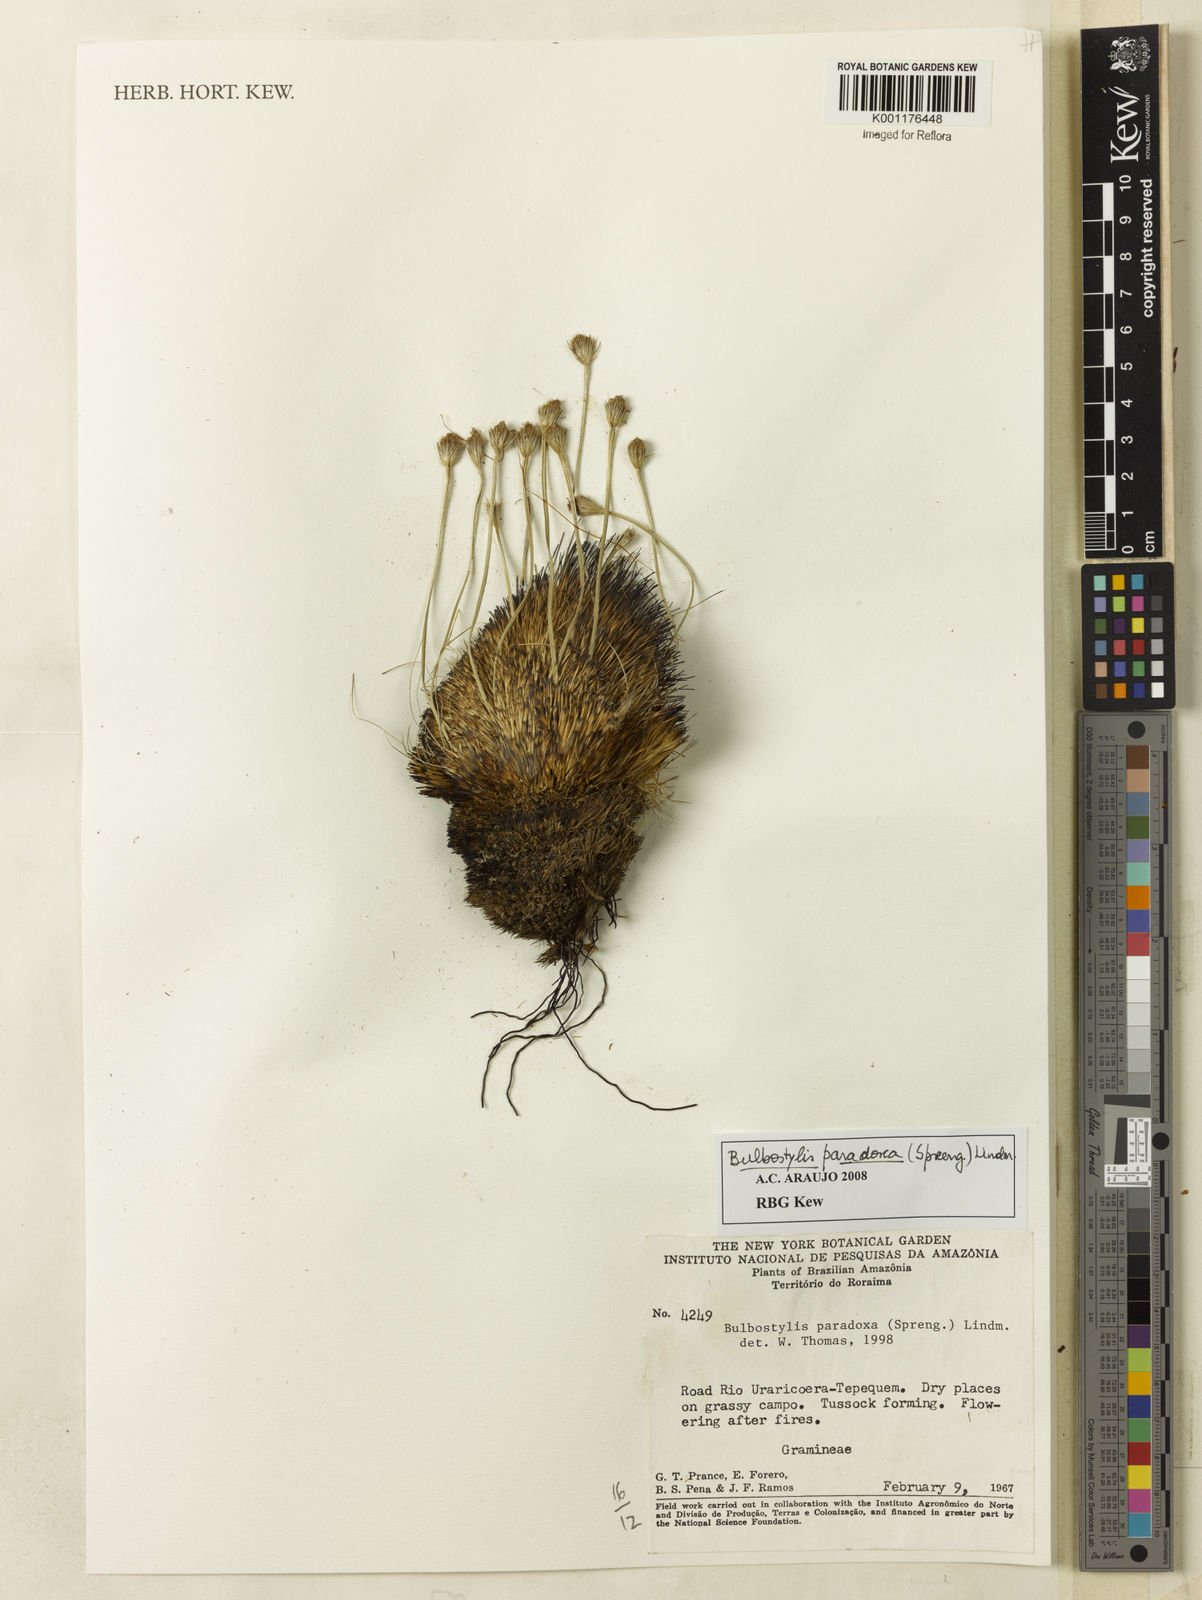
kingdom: Plantae
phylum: Tracheophyta
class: Liliopsida
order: Poales
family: Cyperaceae
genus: Bulbostylis
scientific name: Bulbostylis paradoxa
